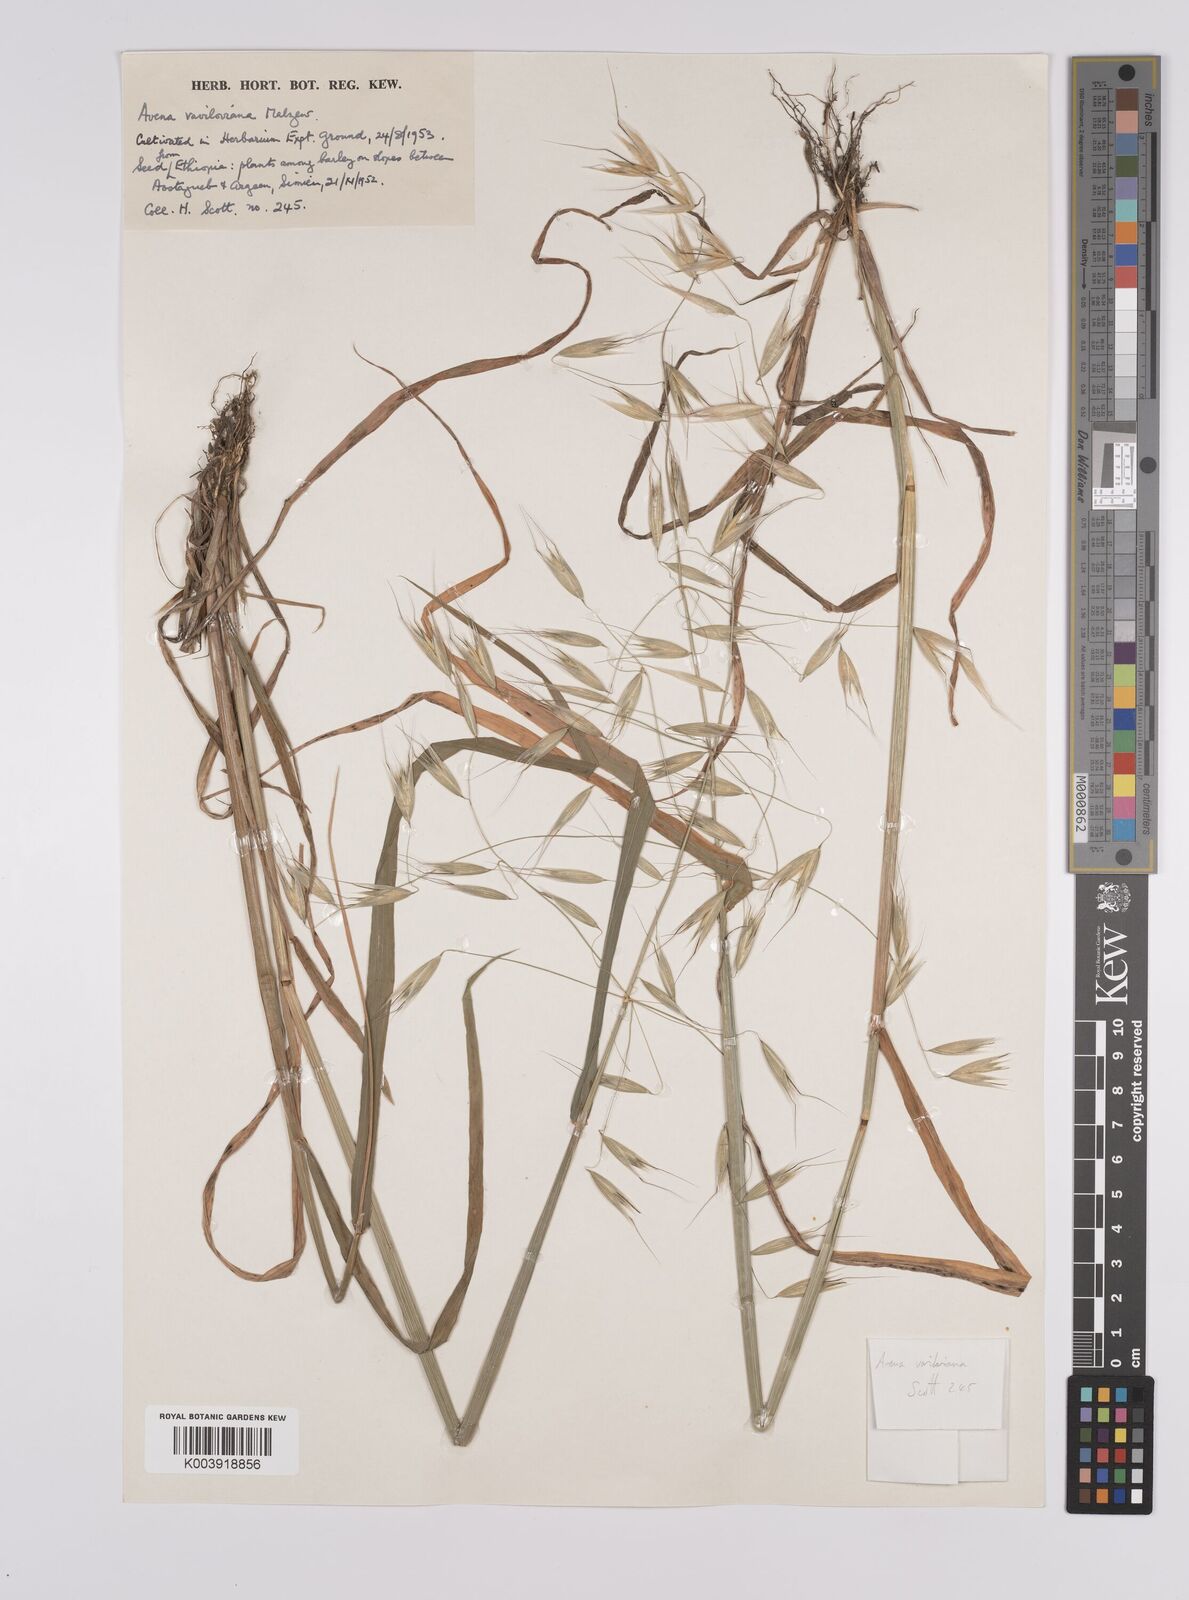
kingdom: Plantae
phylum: Tracheophyta
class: Liliopsida
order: Poales
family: Poaceae
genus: Avena
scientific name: Avena vaviloviana
